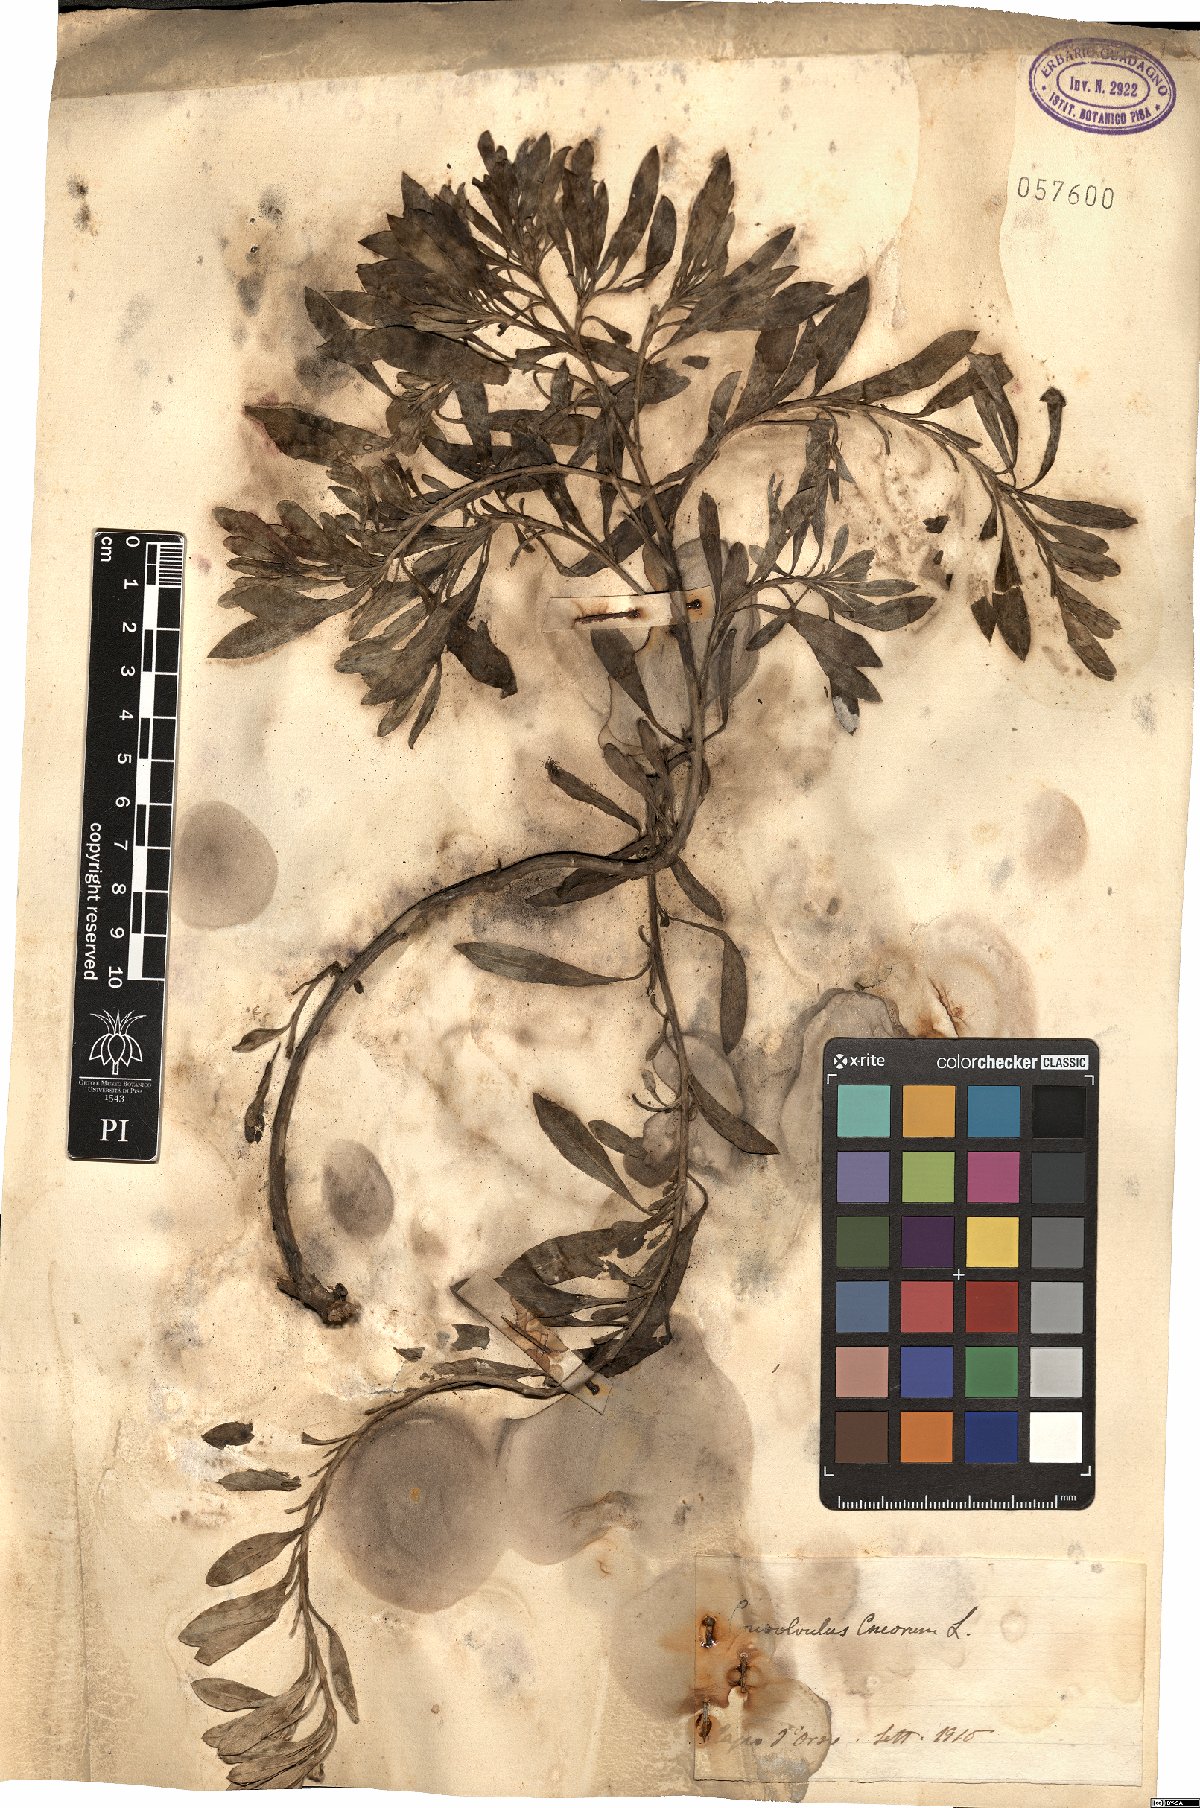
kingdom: Plantae
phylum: Tracheophyta
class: Magnoliopsida
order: Solanales
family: Convolvulaceae
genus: Convolvulus
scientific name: Convolvulus cneorum
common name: Silverbush
